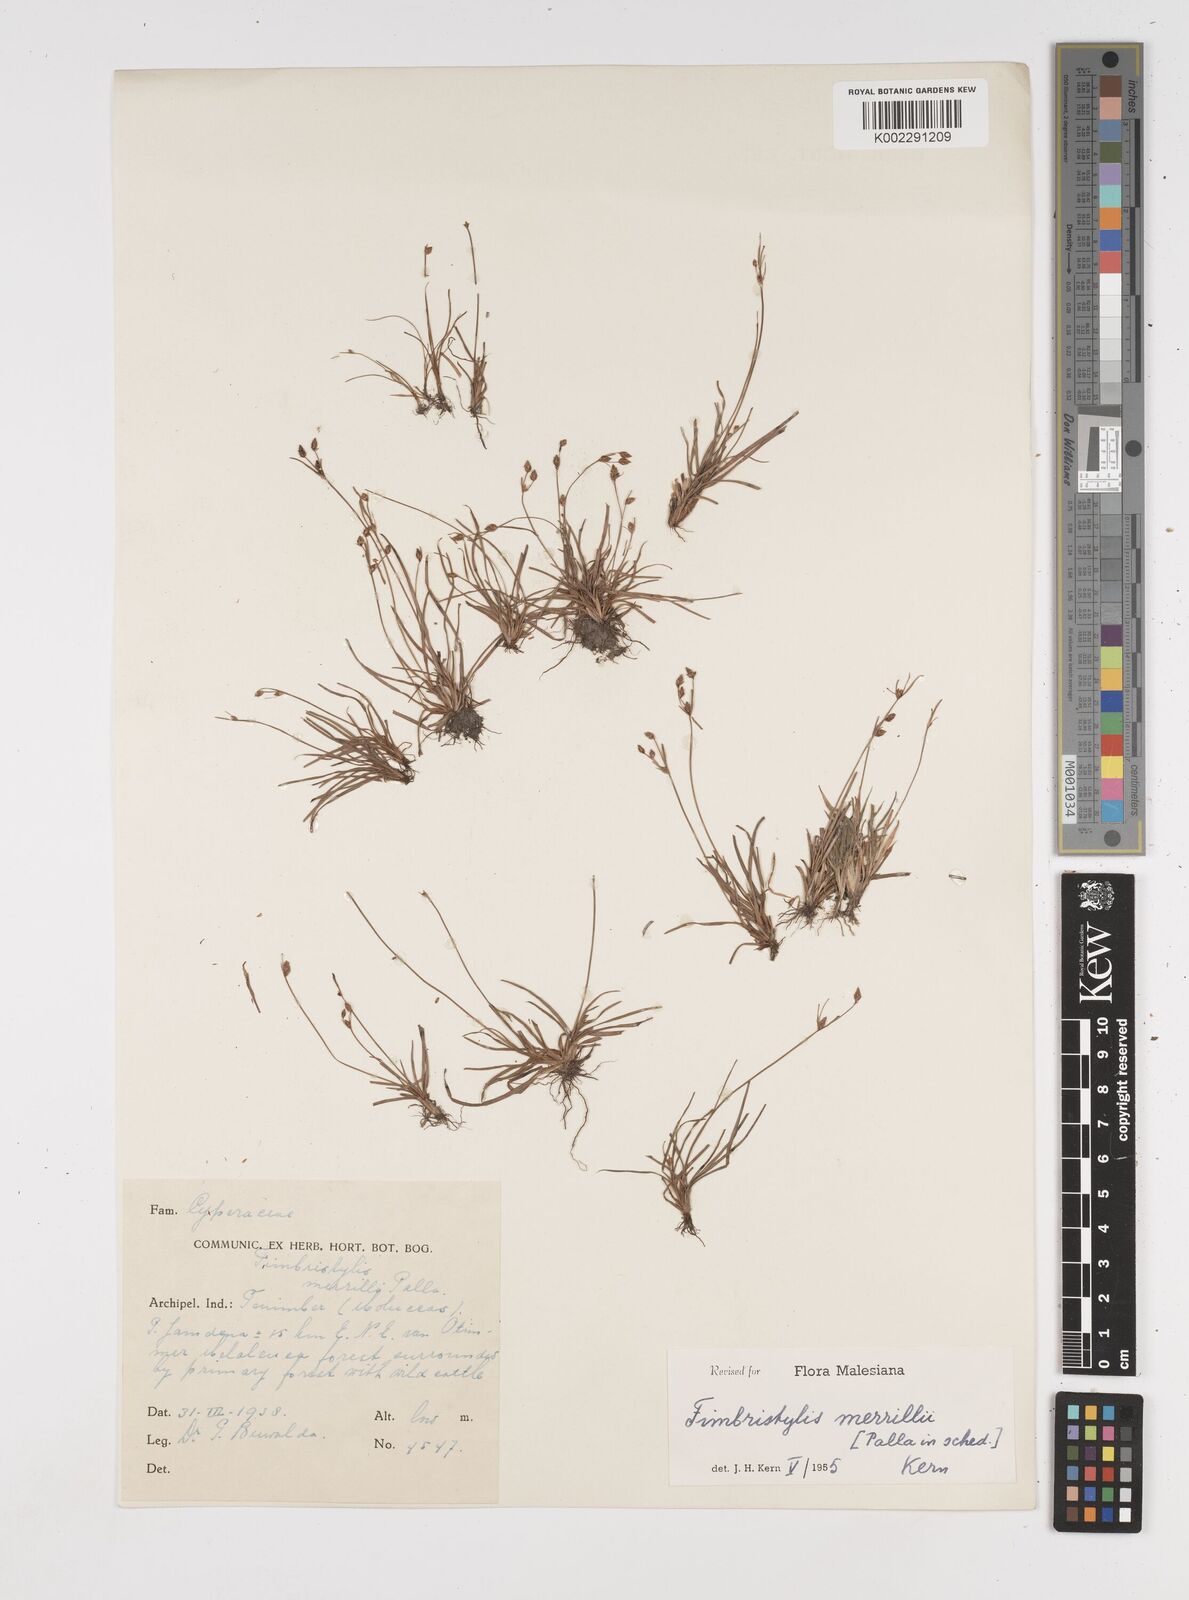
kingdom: Plantae
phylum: Tracheophyta
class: Liliopsida
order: Poales
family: Cyperaceae
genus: Fimbristylis
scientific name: Fimbristylis merrillii
